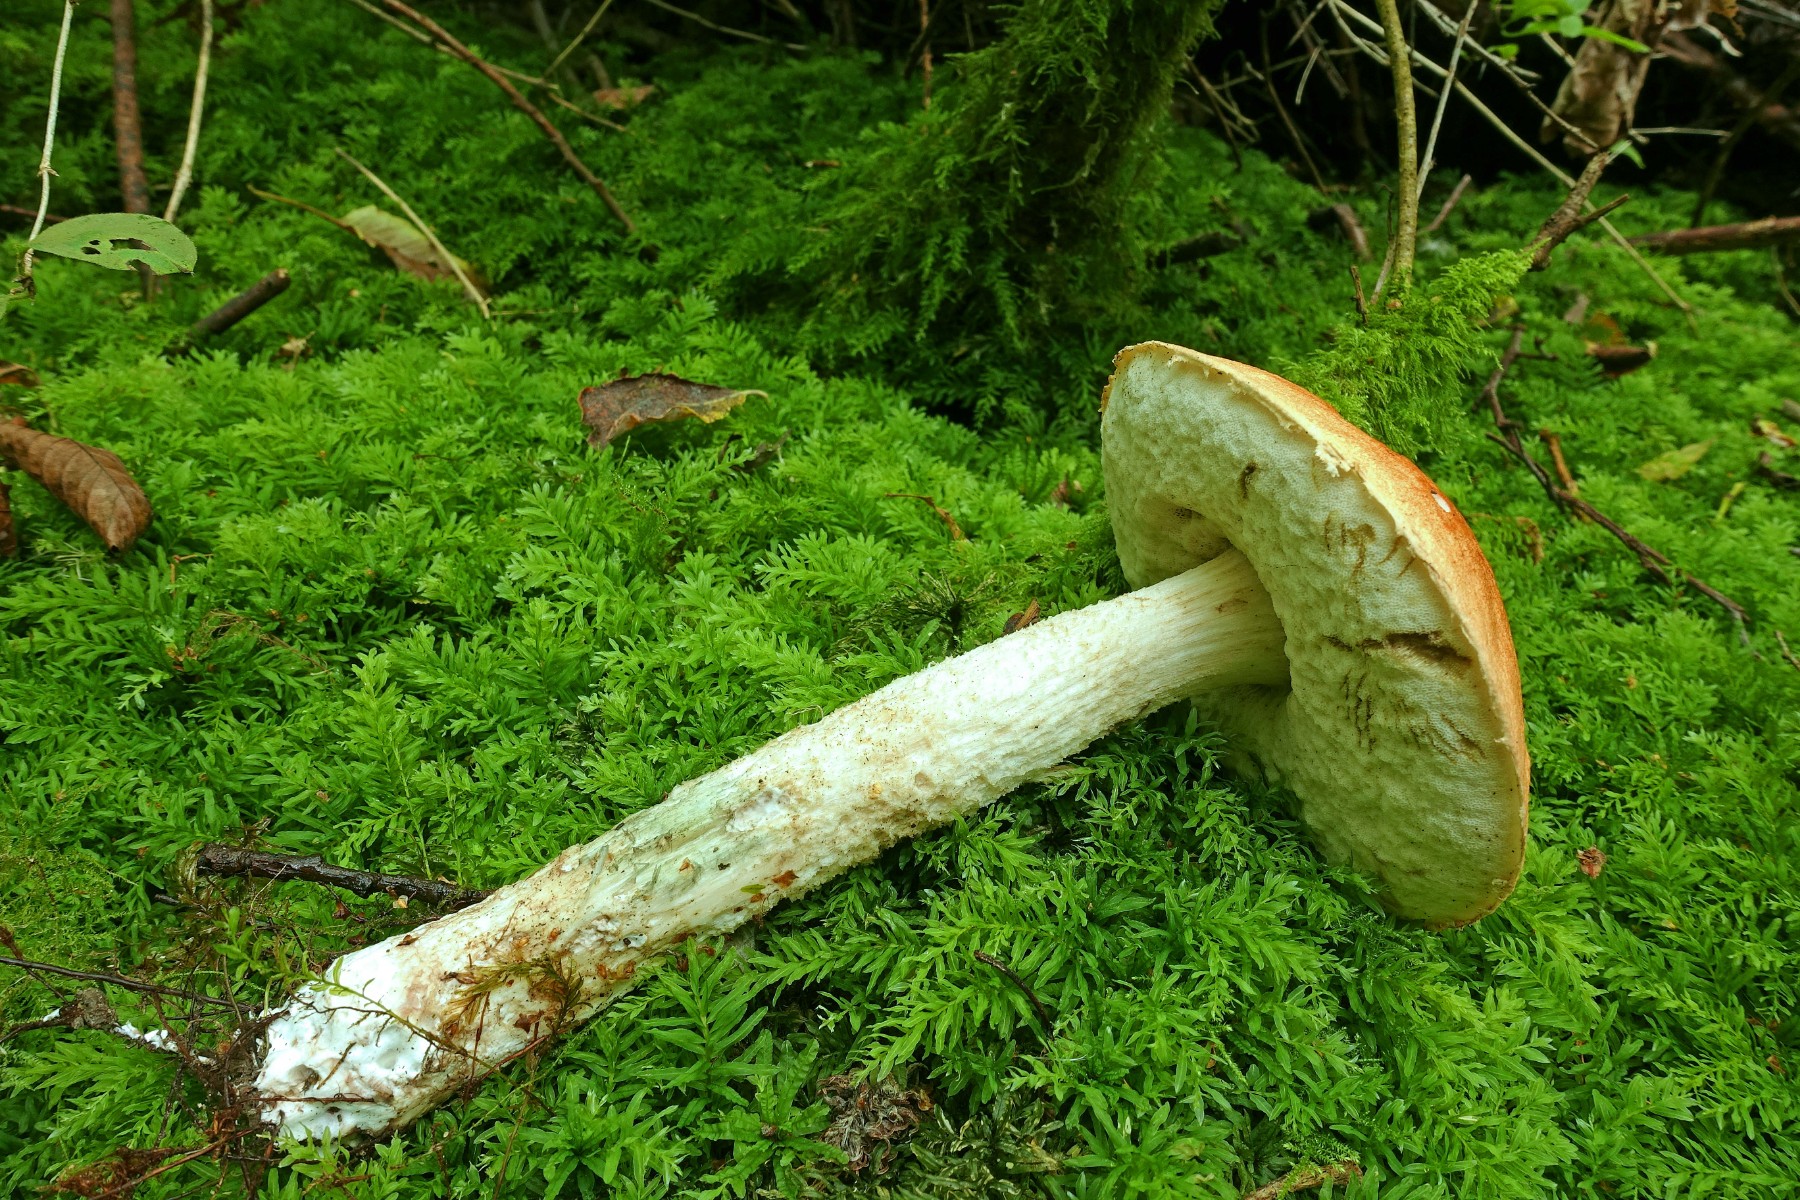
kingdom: Fungi
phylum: Basidiomycota
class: Agaricomycetes
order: Boletales
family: Boletaceae
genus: Leccinum
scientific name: Leccinum albostipitatum
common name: aspe-skælrørhat
